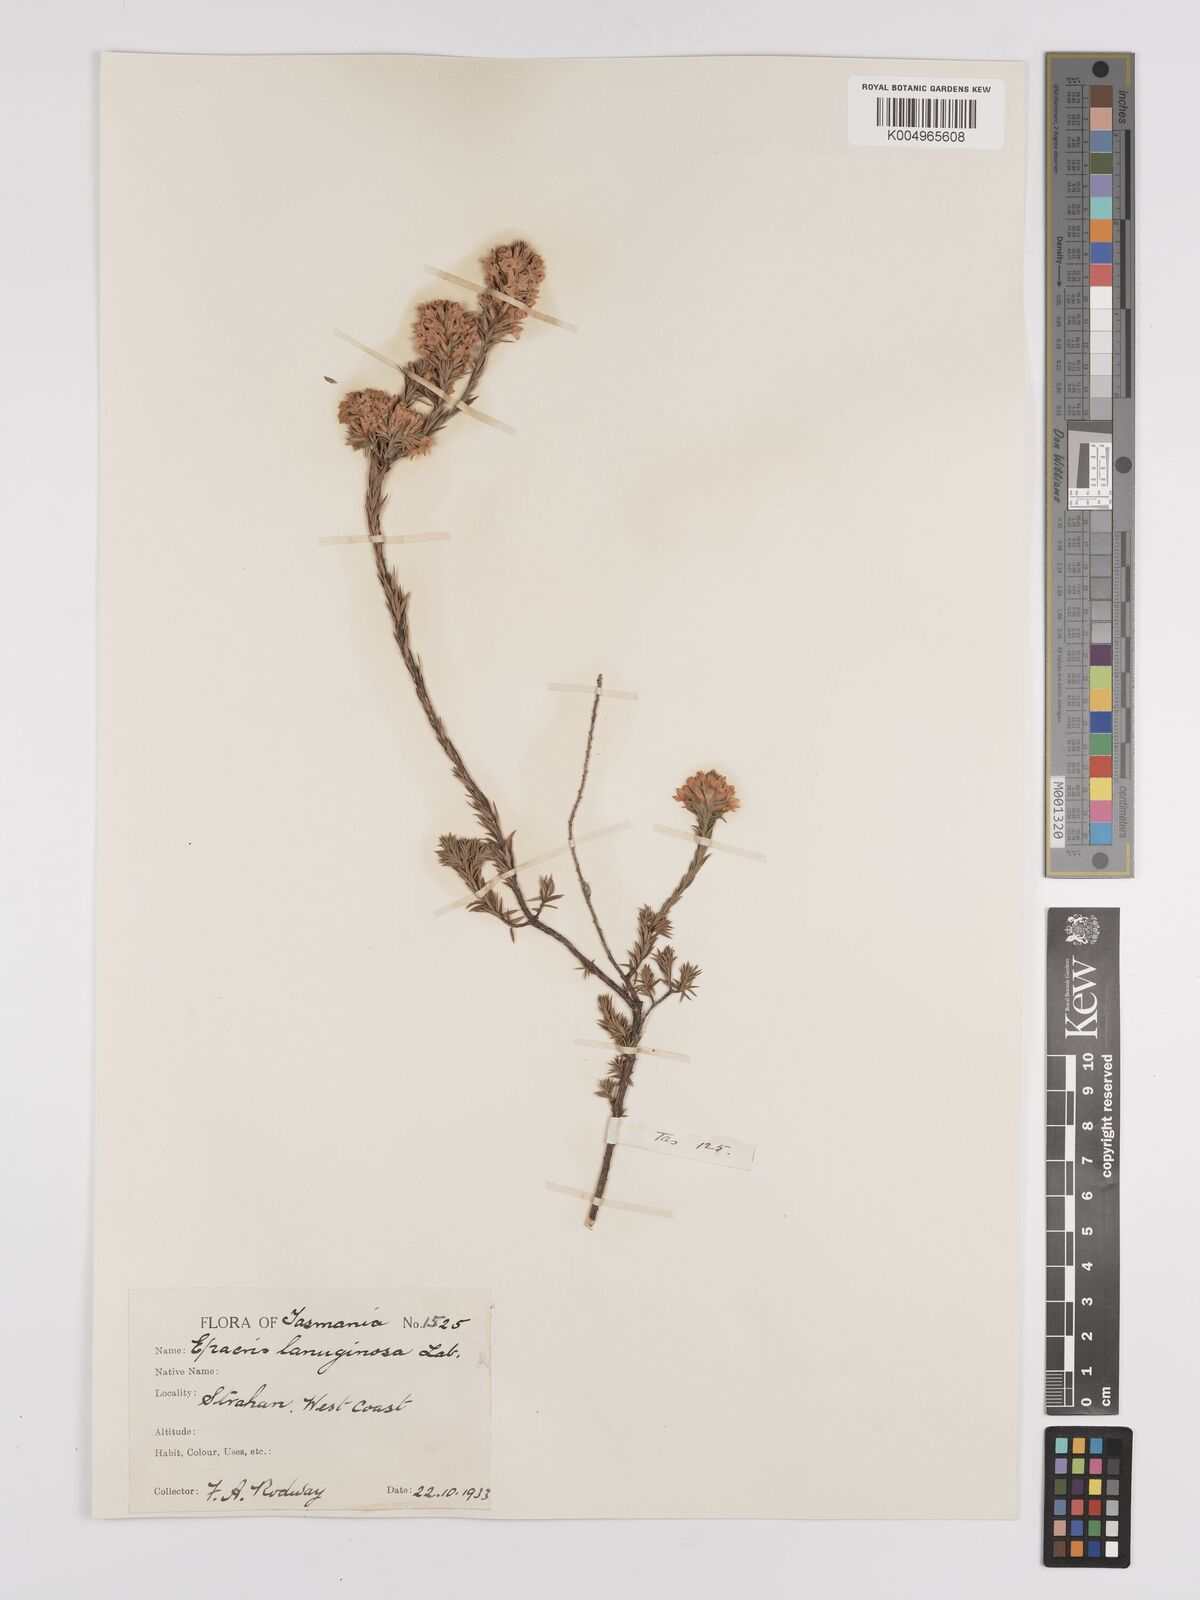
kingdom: Plantae
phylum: Tracheophyta
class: Magnoliopsida
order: Ericales
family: Ericaceae
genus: Epacris
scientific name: Epacris lanuginosa
